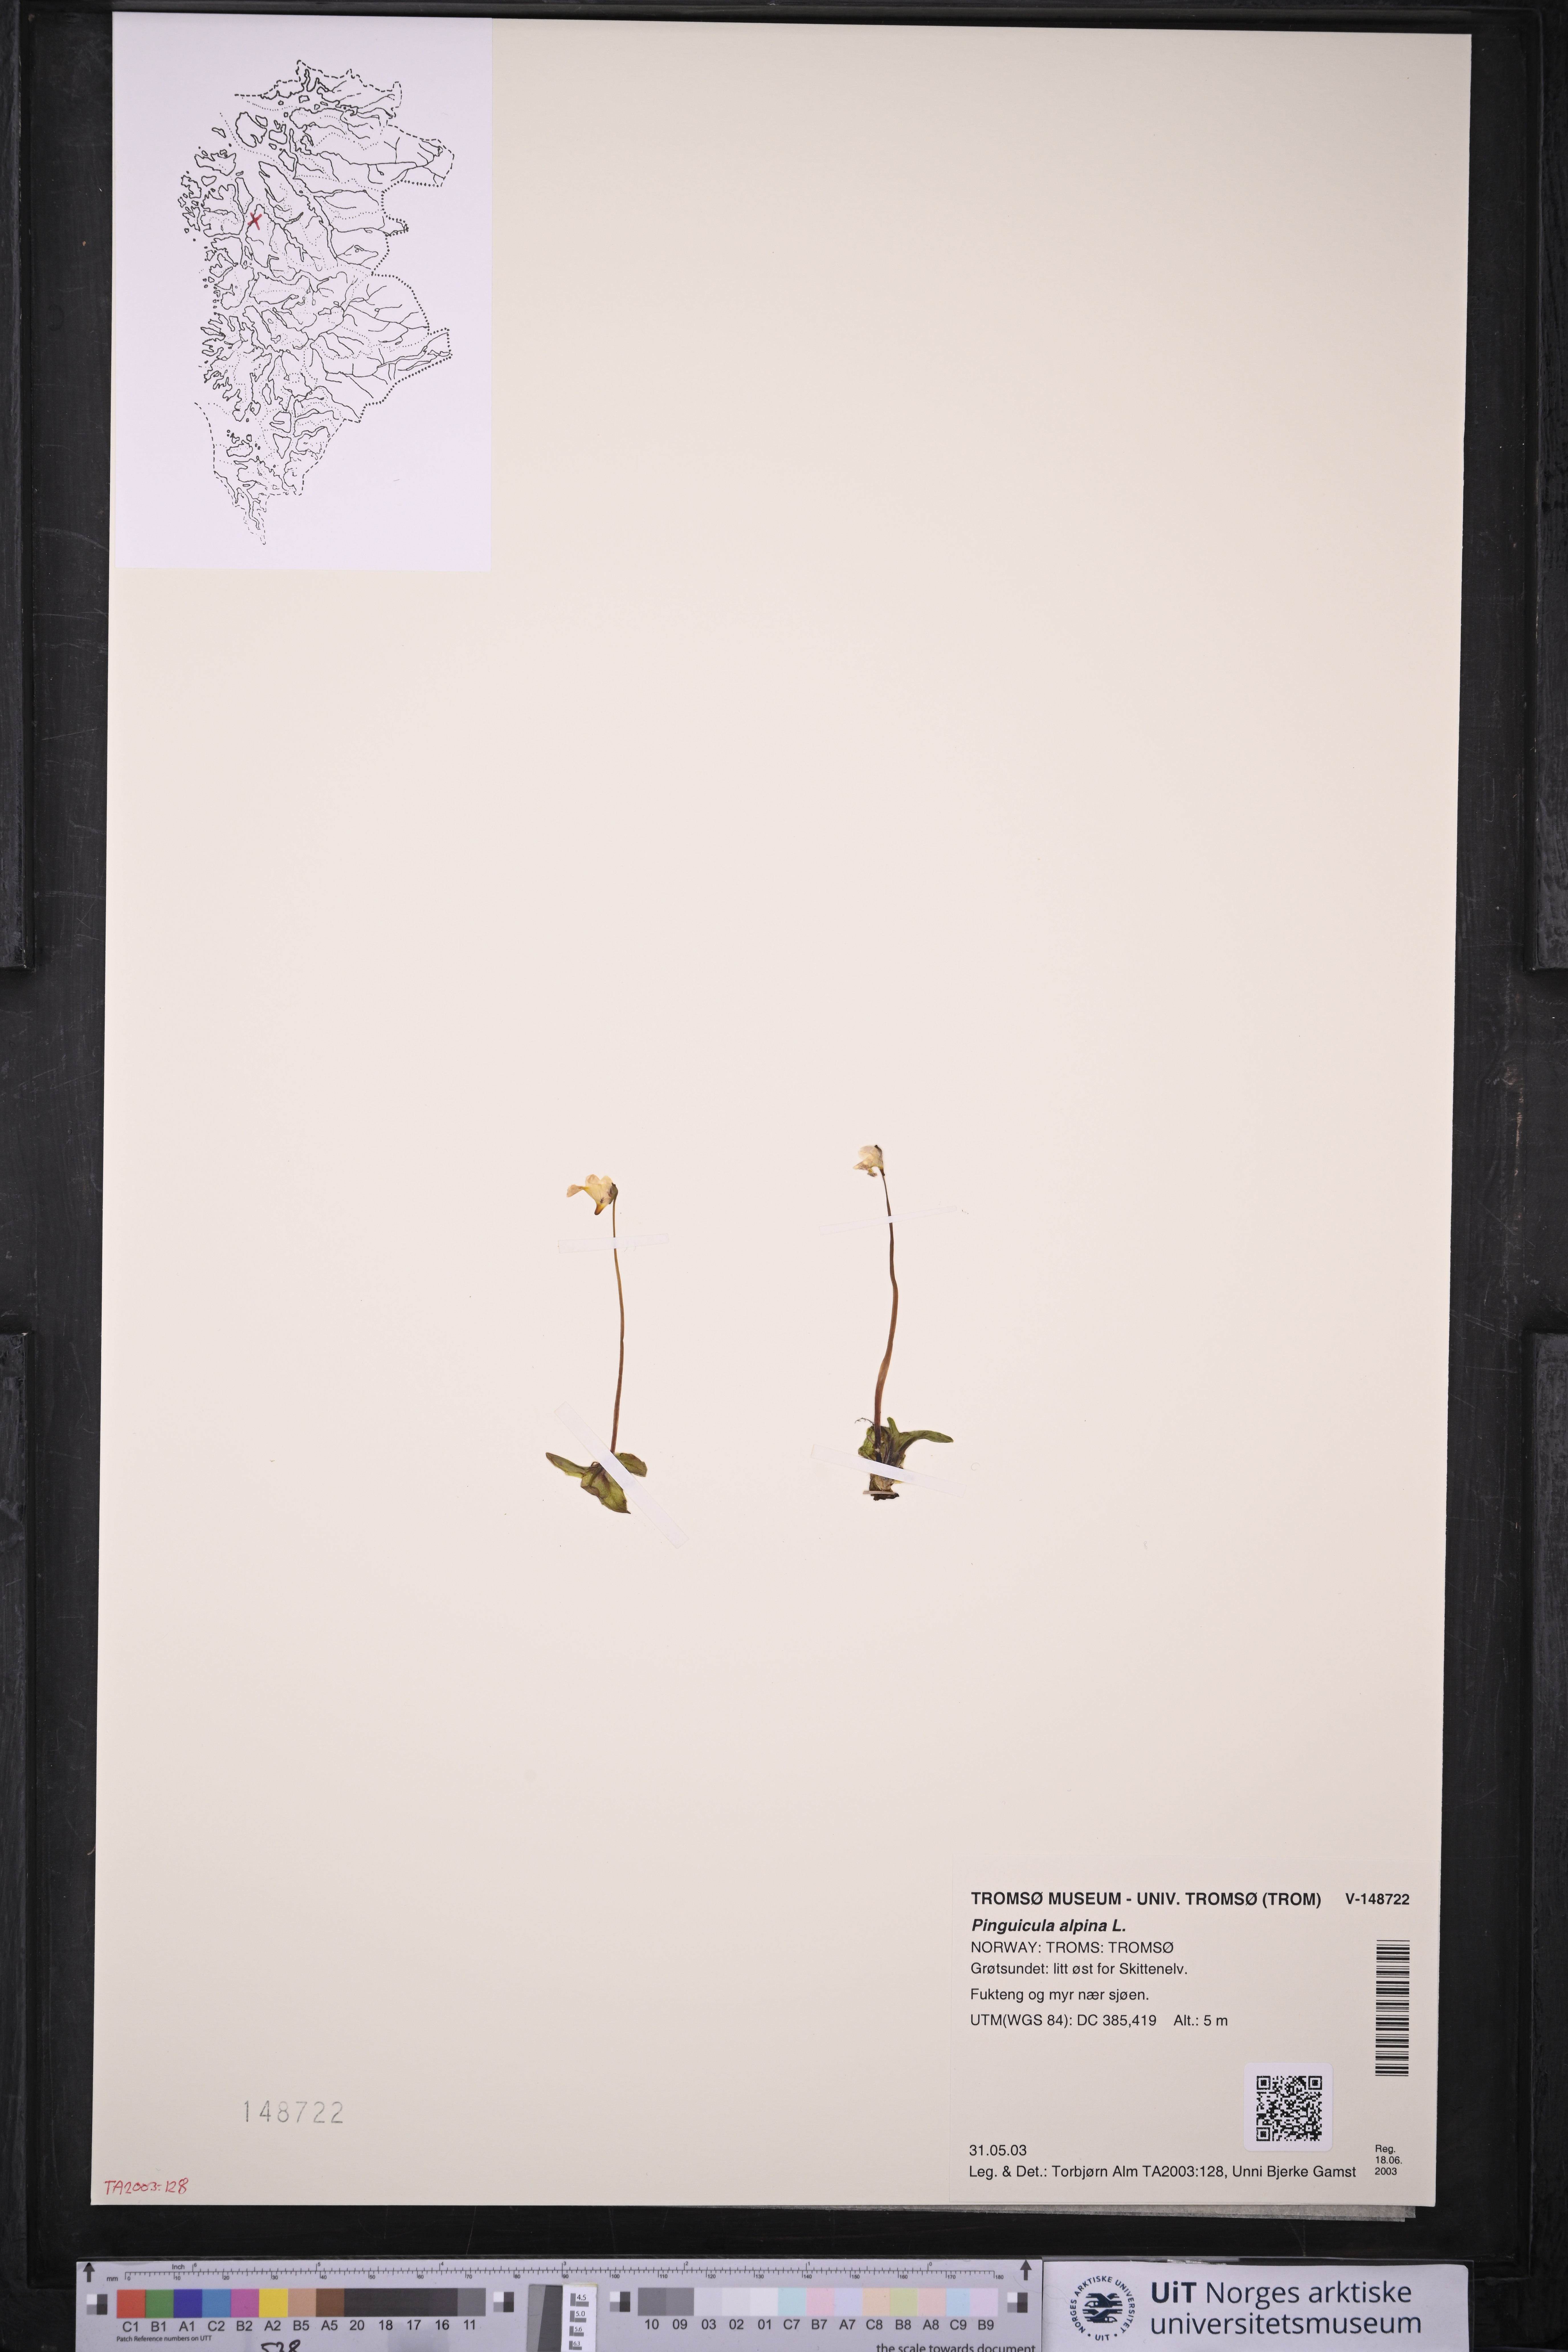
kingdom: Plantae
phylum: Tracheophyta
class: Magnoliopsida
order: Lamiales
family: Lentibulariaceae
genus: Pinguicula
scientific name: Pinguicula alpina
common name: Alpine butterwort
